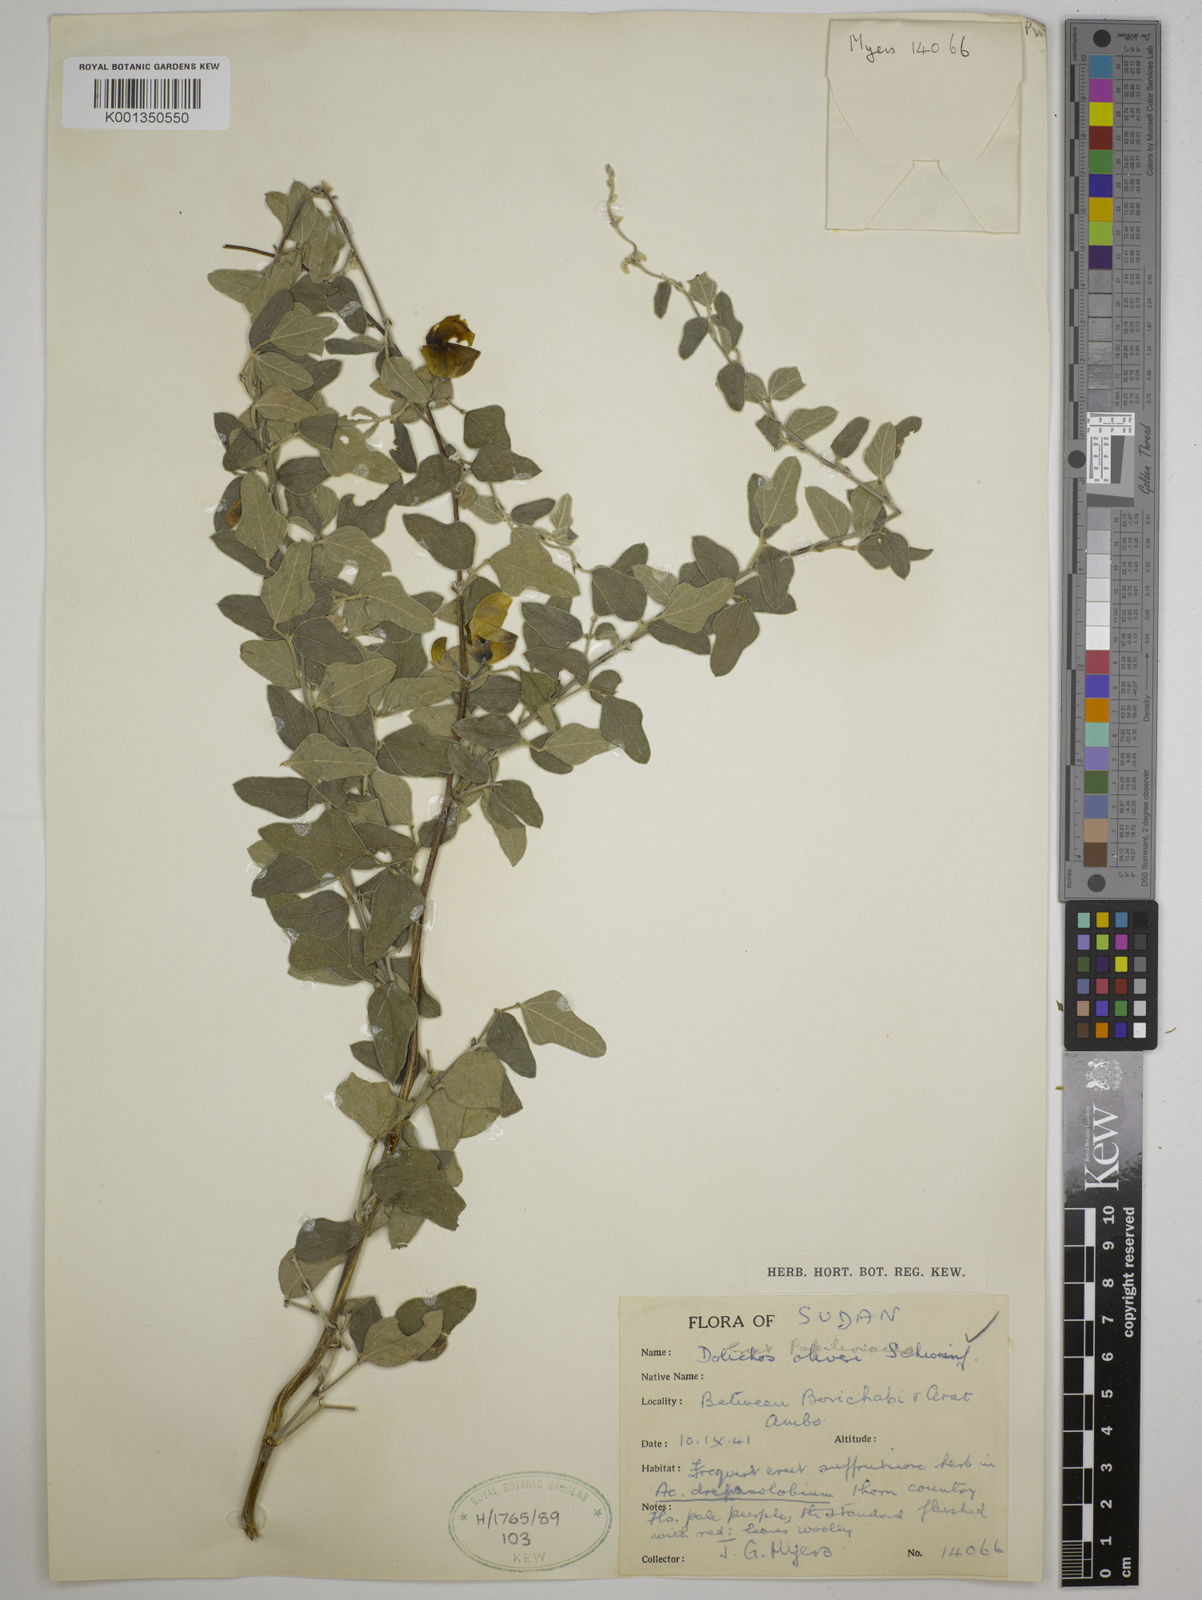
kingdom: Plantae
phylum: Tracheophyta
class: Magnoliopsida
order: Fabales
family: Fabaceae
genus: Dolichos
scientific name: Dolichos oliveri
